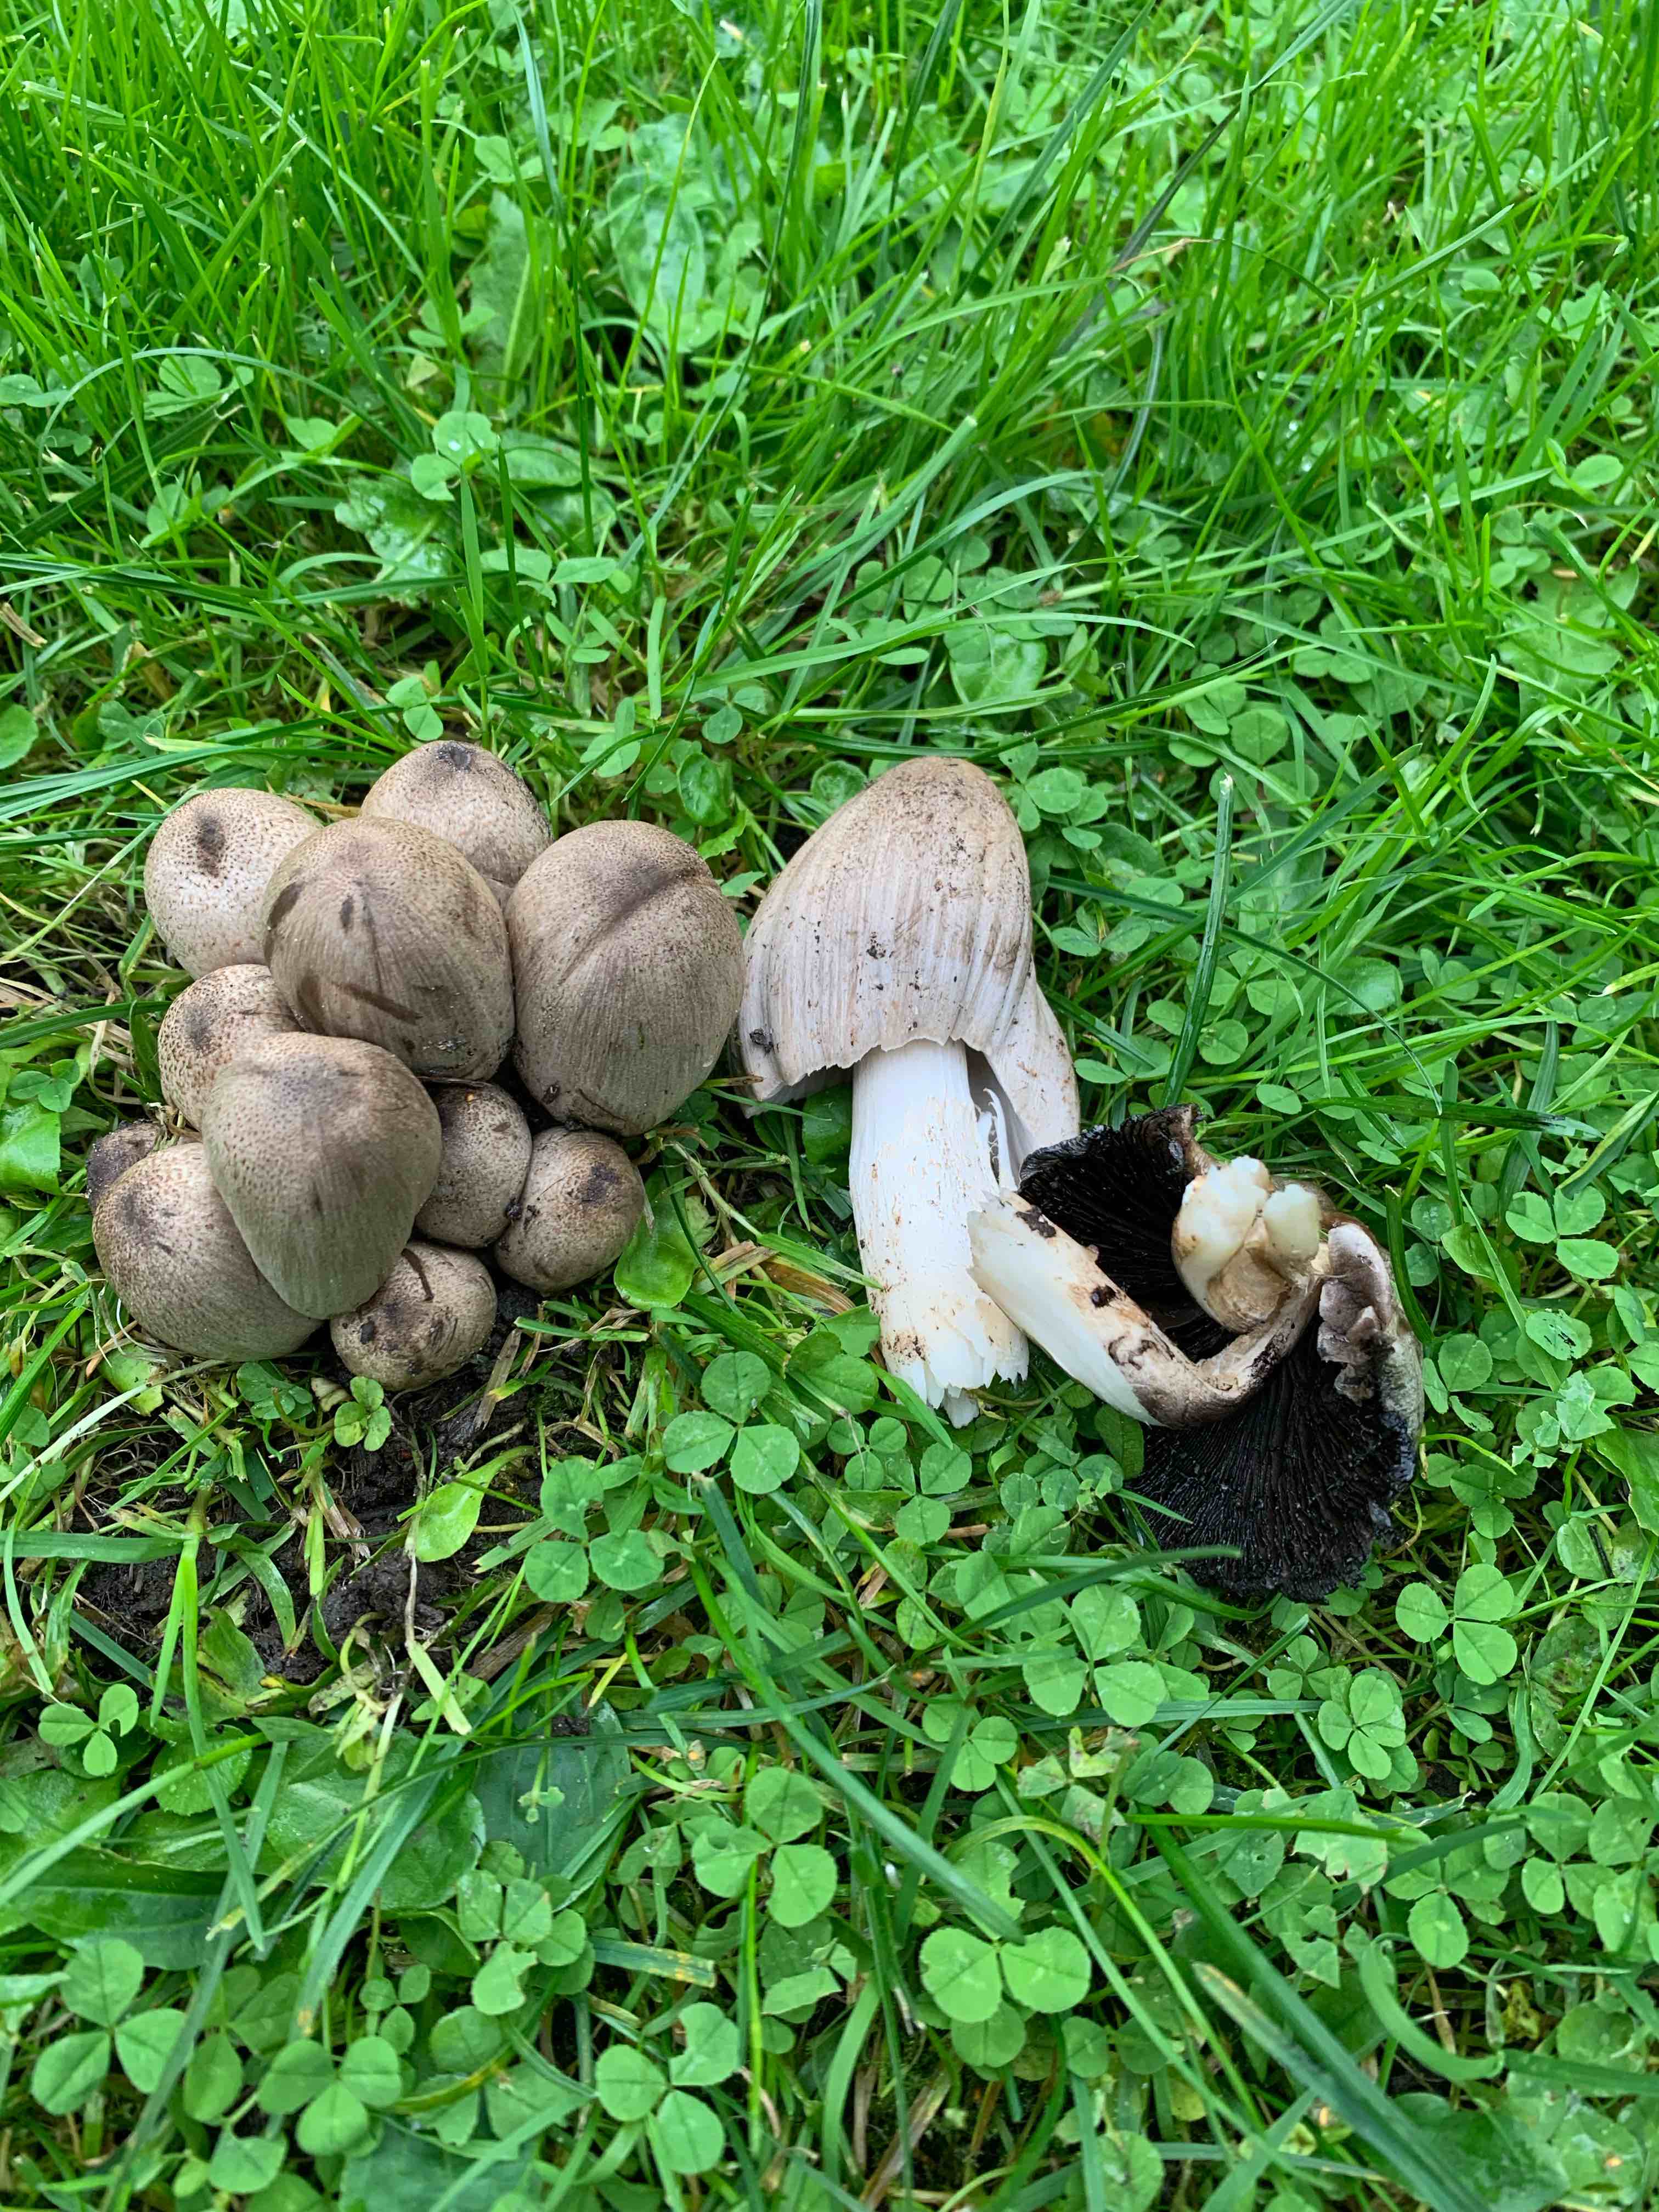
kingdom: Fungi
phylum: Basidiomycota
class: Agaricomycetes
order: Agaricales
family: Psathyrellaceae
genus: Coprinopsis
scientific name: Coprinopsis
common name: blækhat
